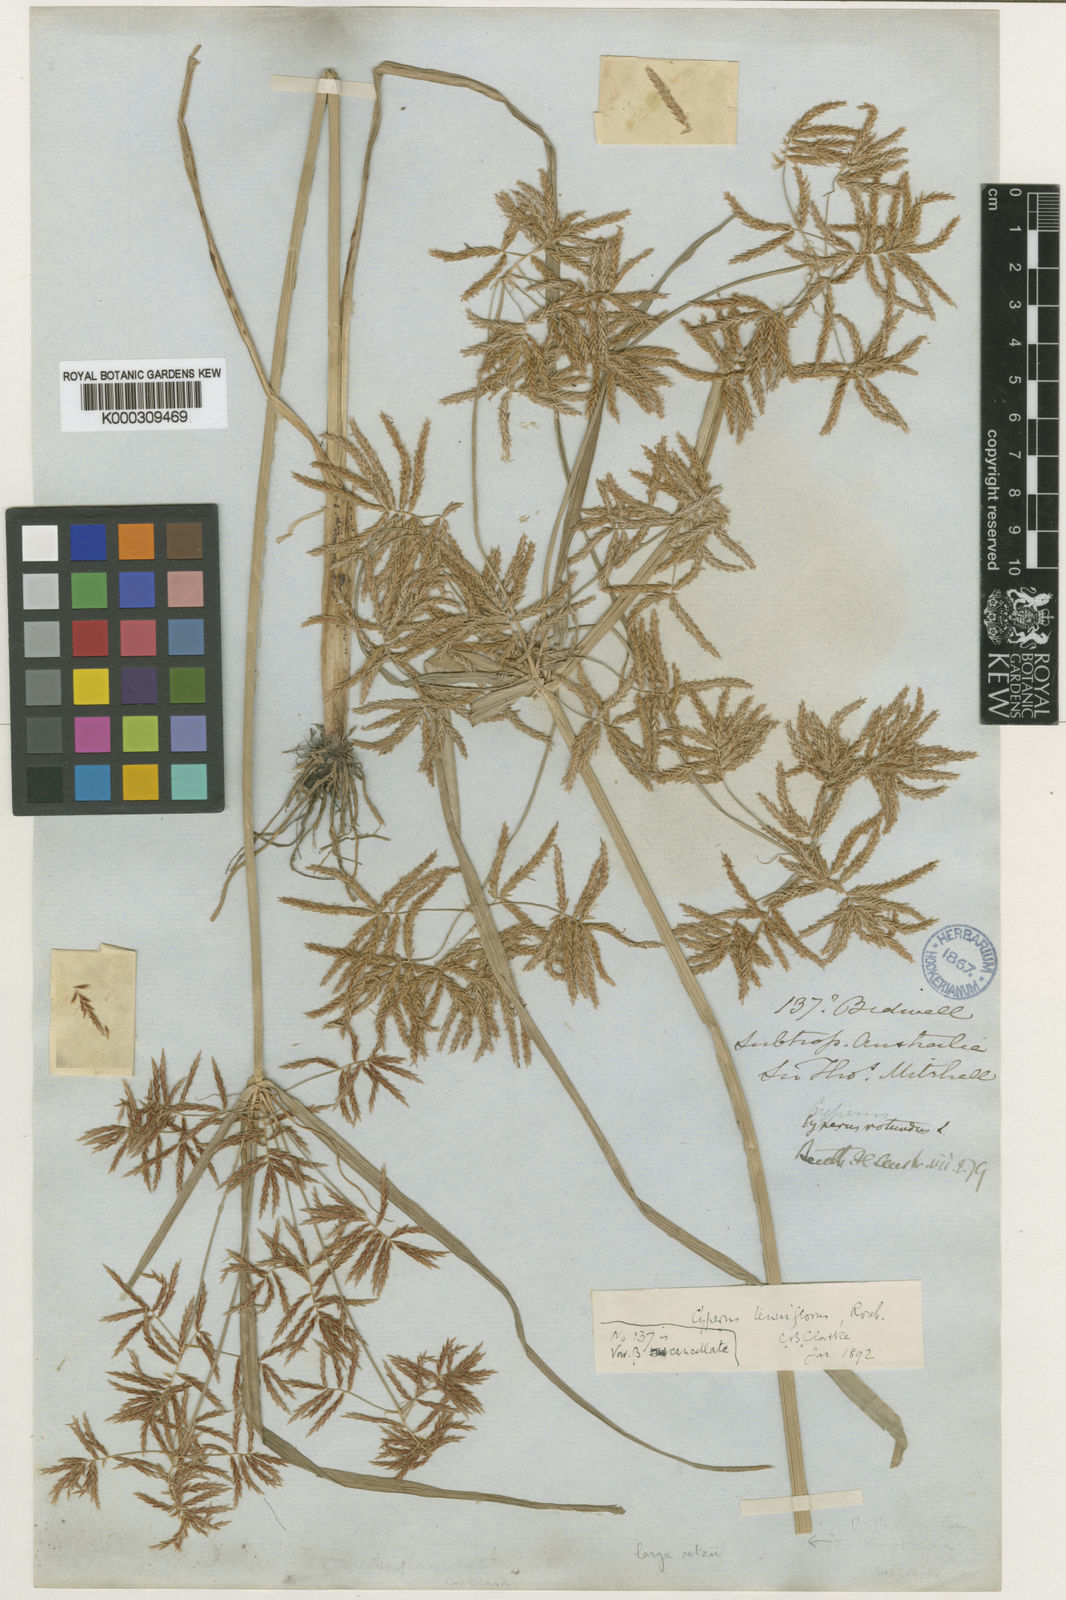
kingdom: Plantae
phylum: Tracheophyta
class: Liliopsida
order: Poales
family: Cyperaceae
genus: Cyperus
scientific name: Cyperus bifax
